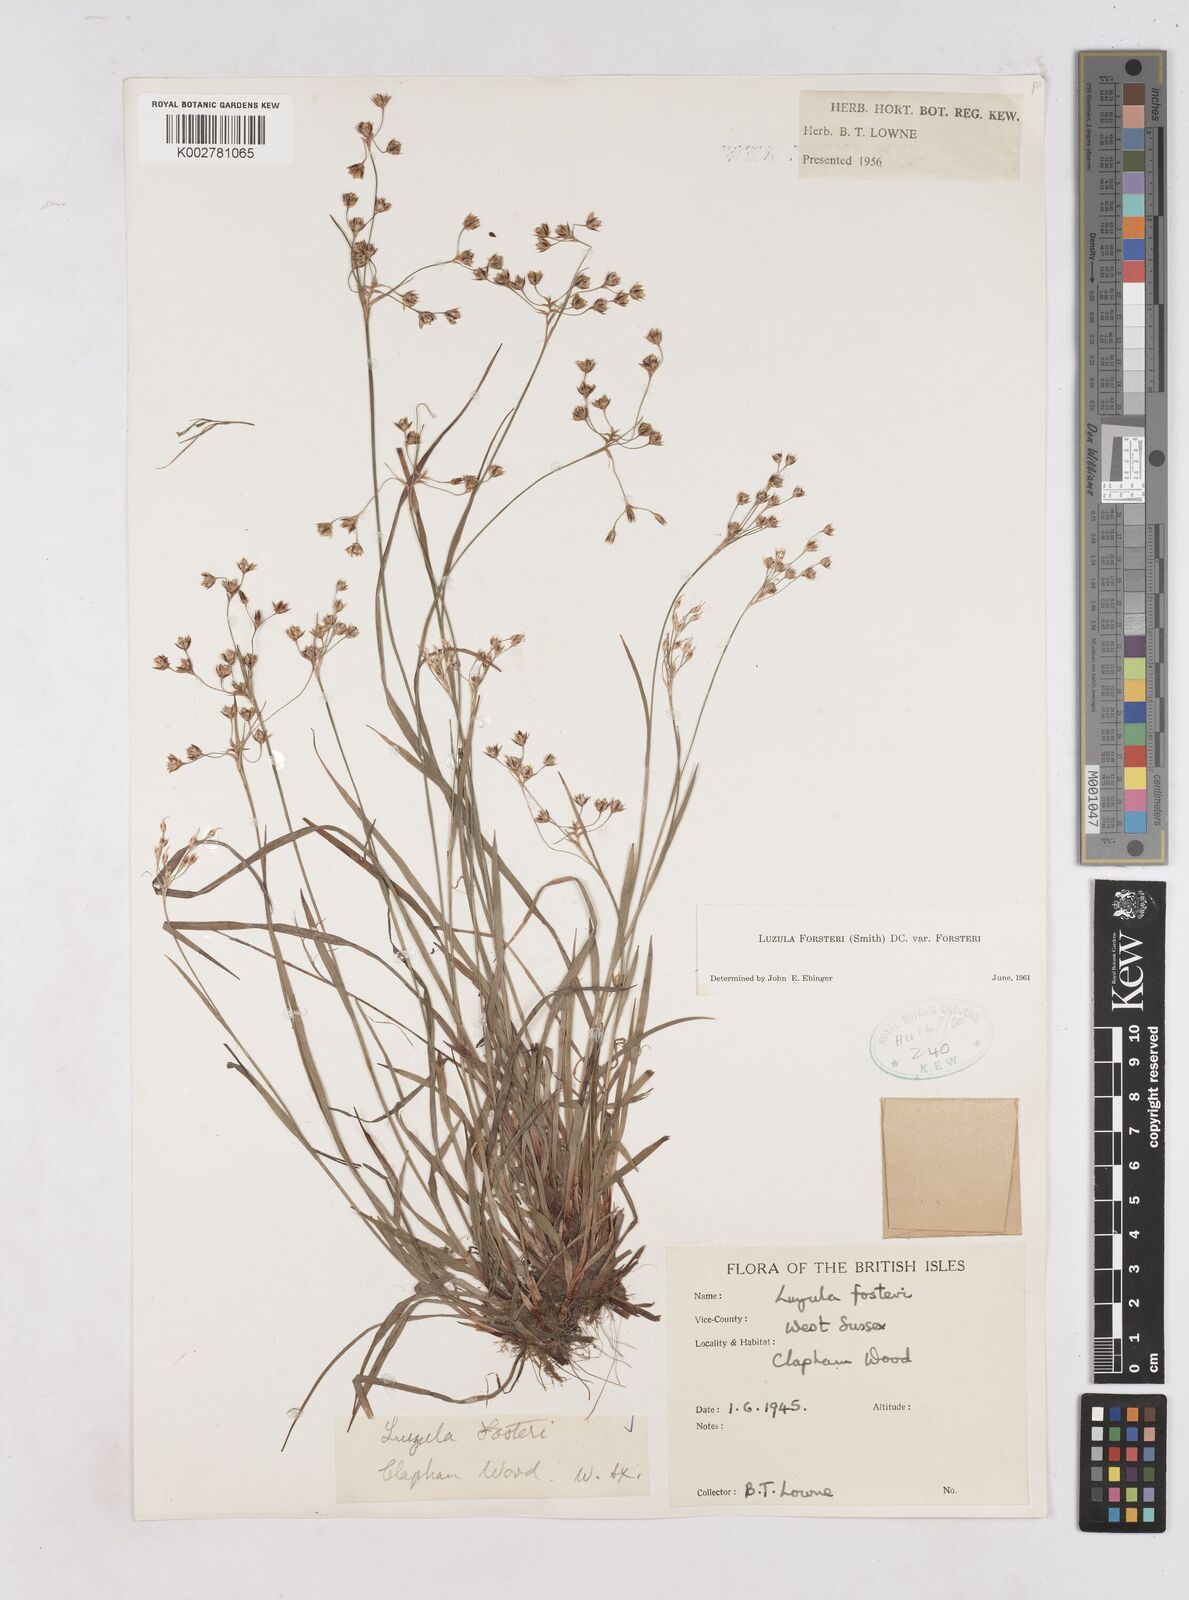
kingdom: Plantae
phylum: Tracheophyta
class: Liliopsida
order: Poales
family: Juncaceae
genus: Luzula
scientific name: Luzula forsteri
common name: Southern wood-rush
